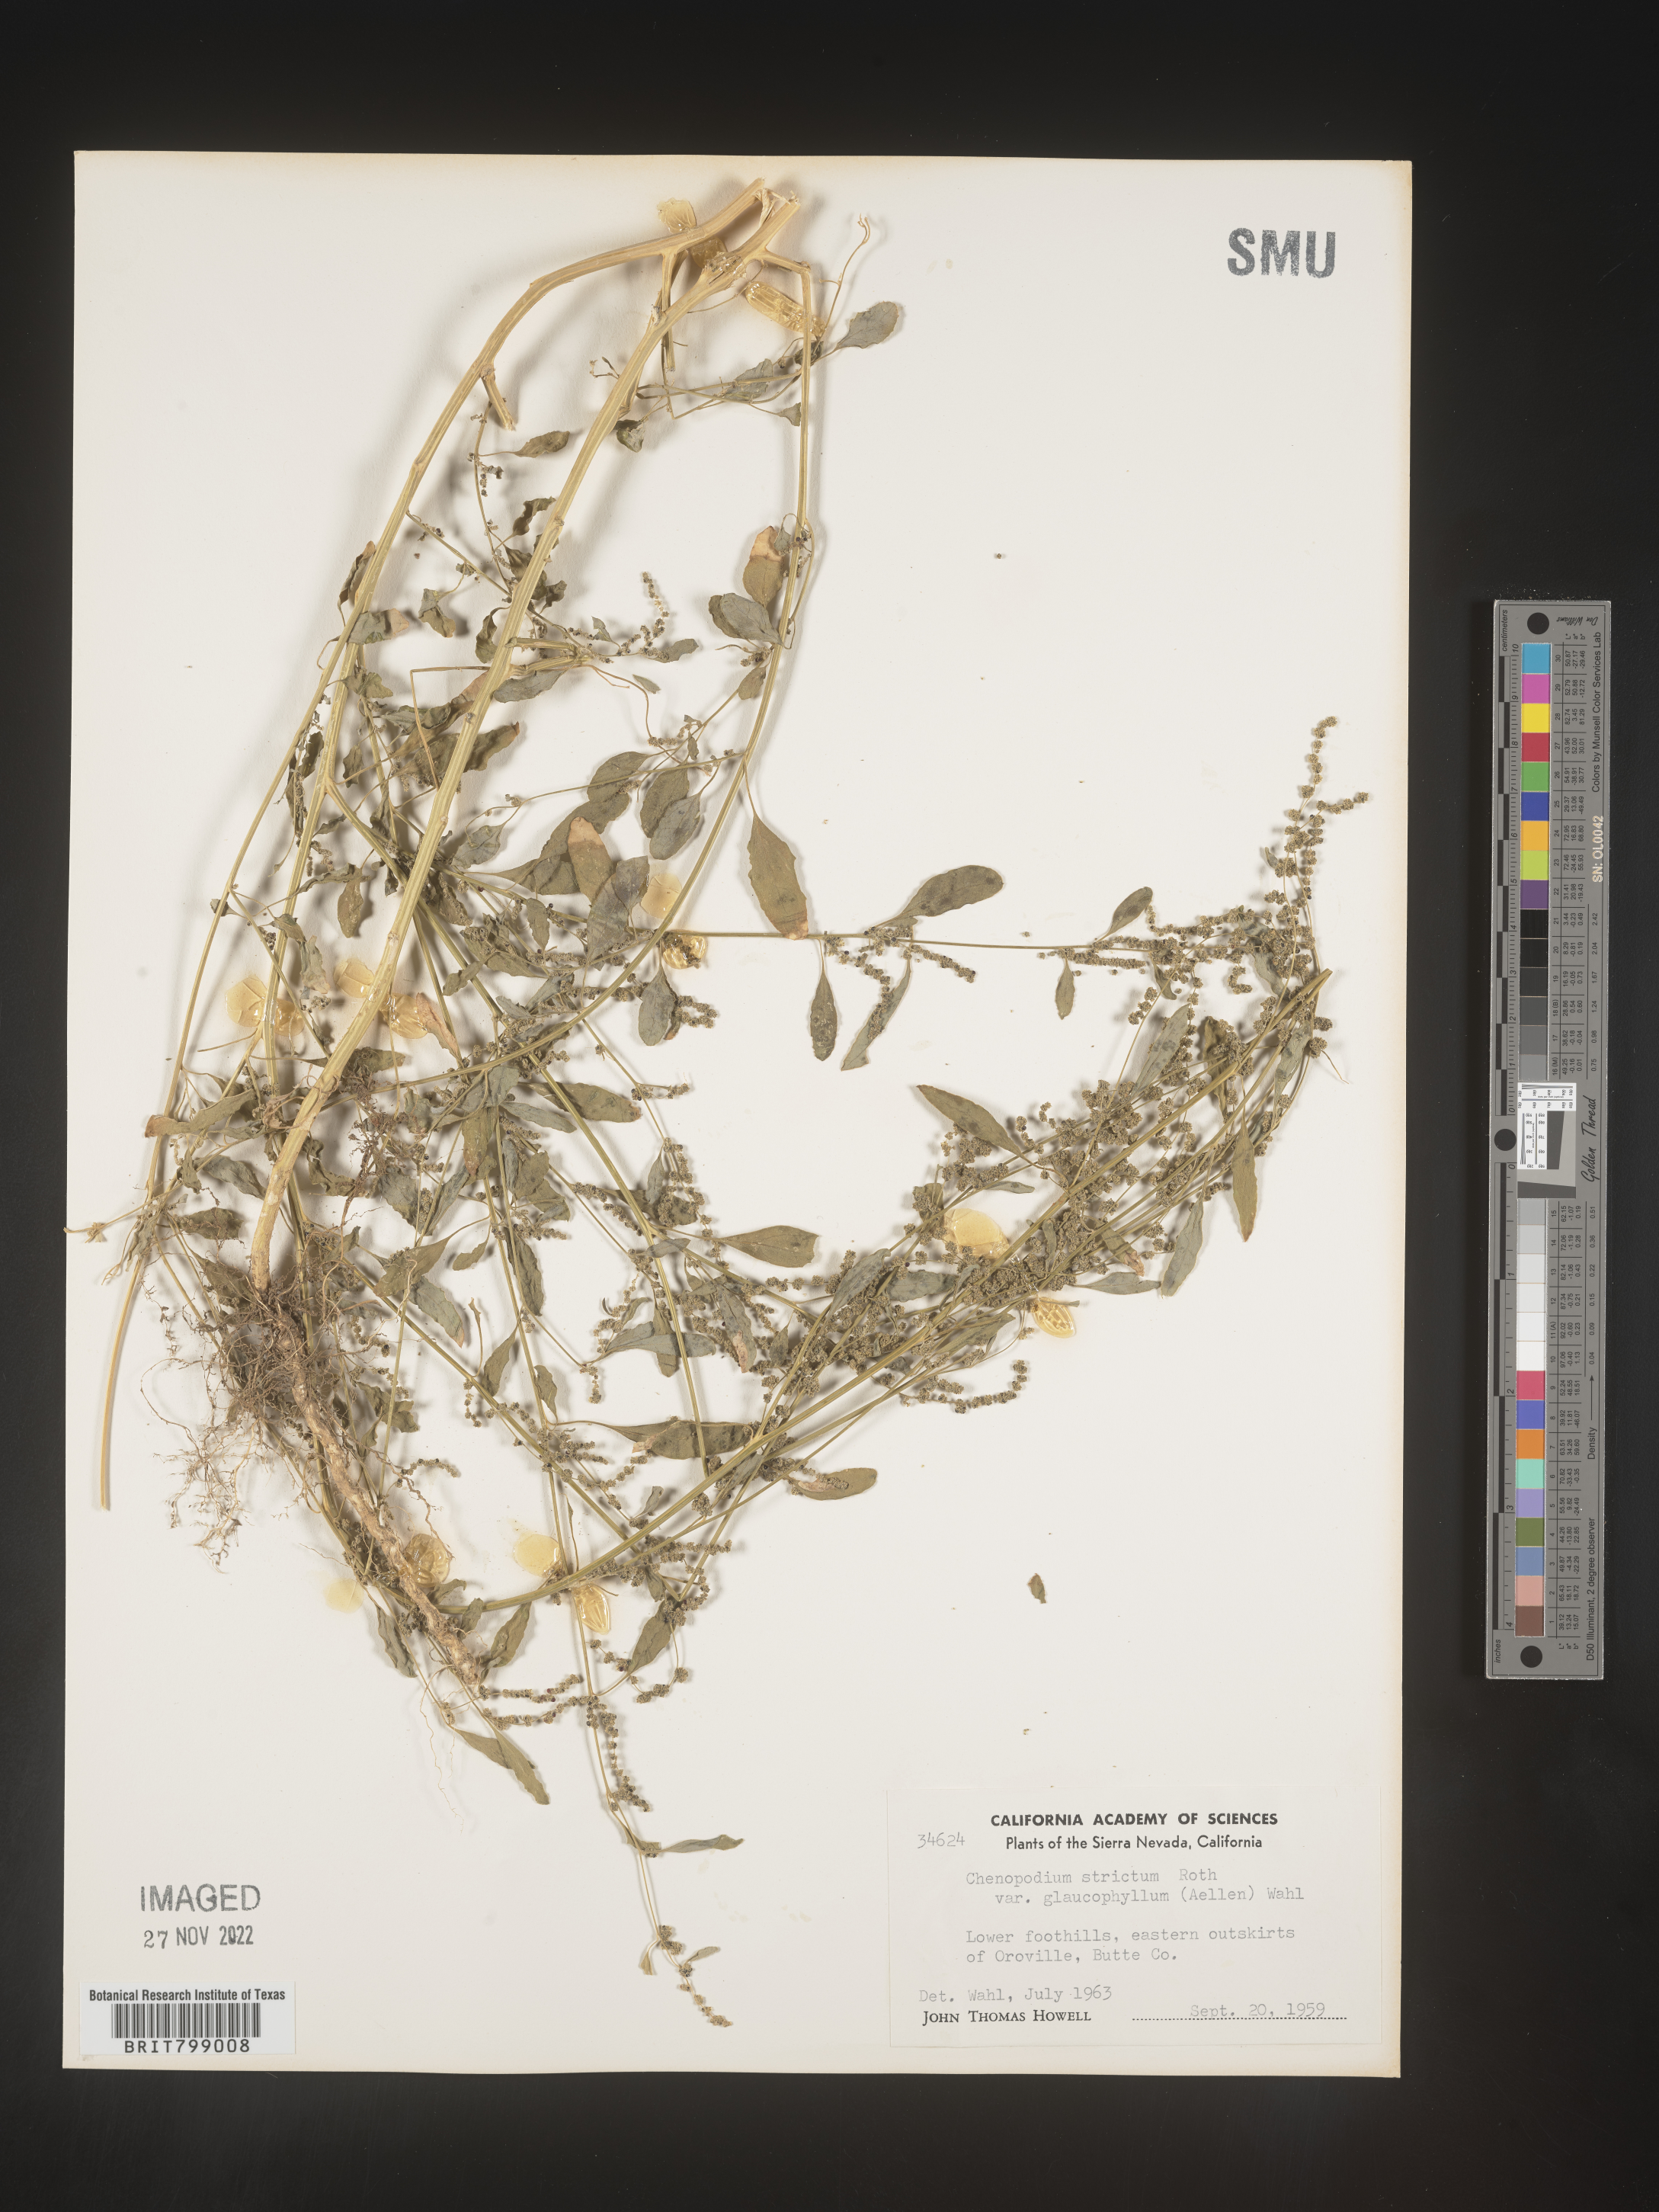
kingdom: Plantae
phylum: Tracheophyta
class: Magnoliopsida
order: Caryophyllales
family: Amaranthaceae
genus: Chenopodium
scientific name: Chenopodium album
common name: Fat-hen
